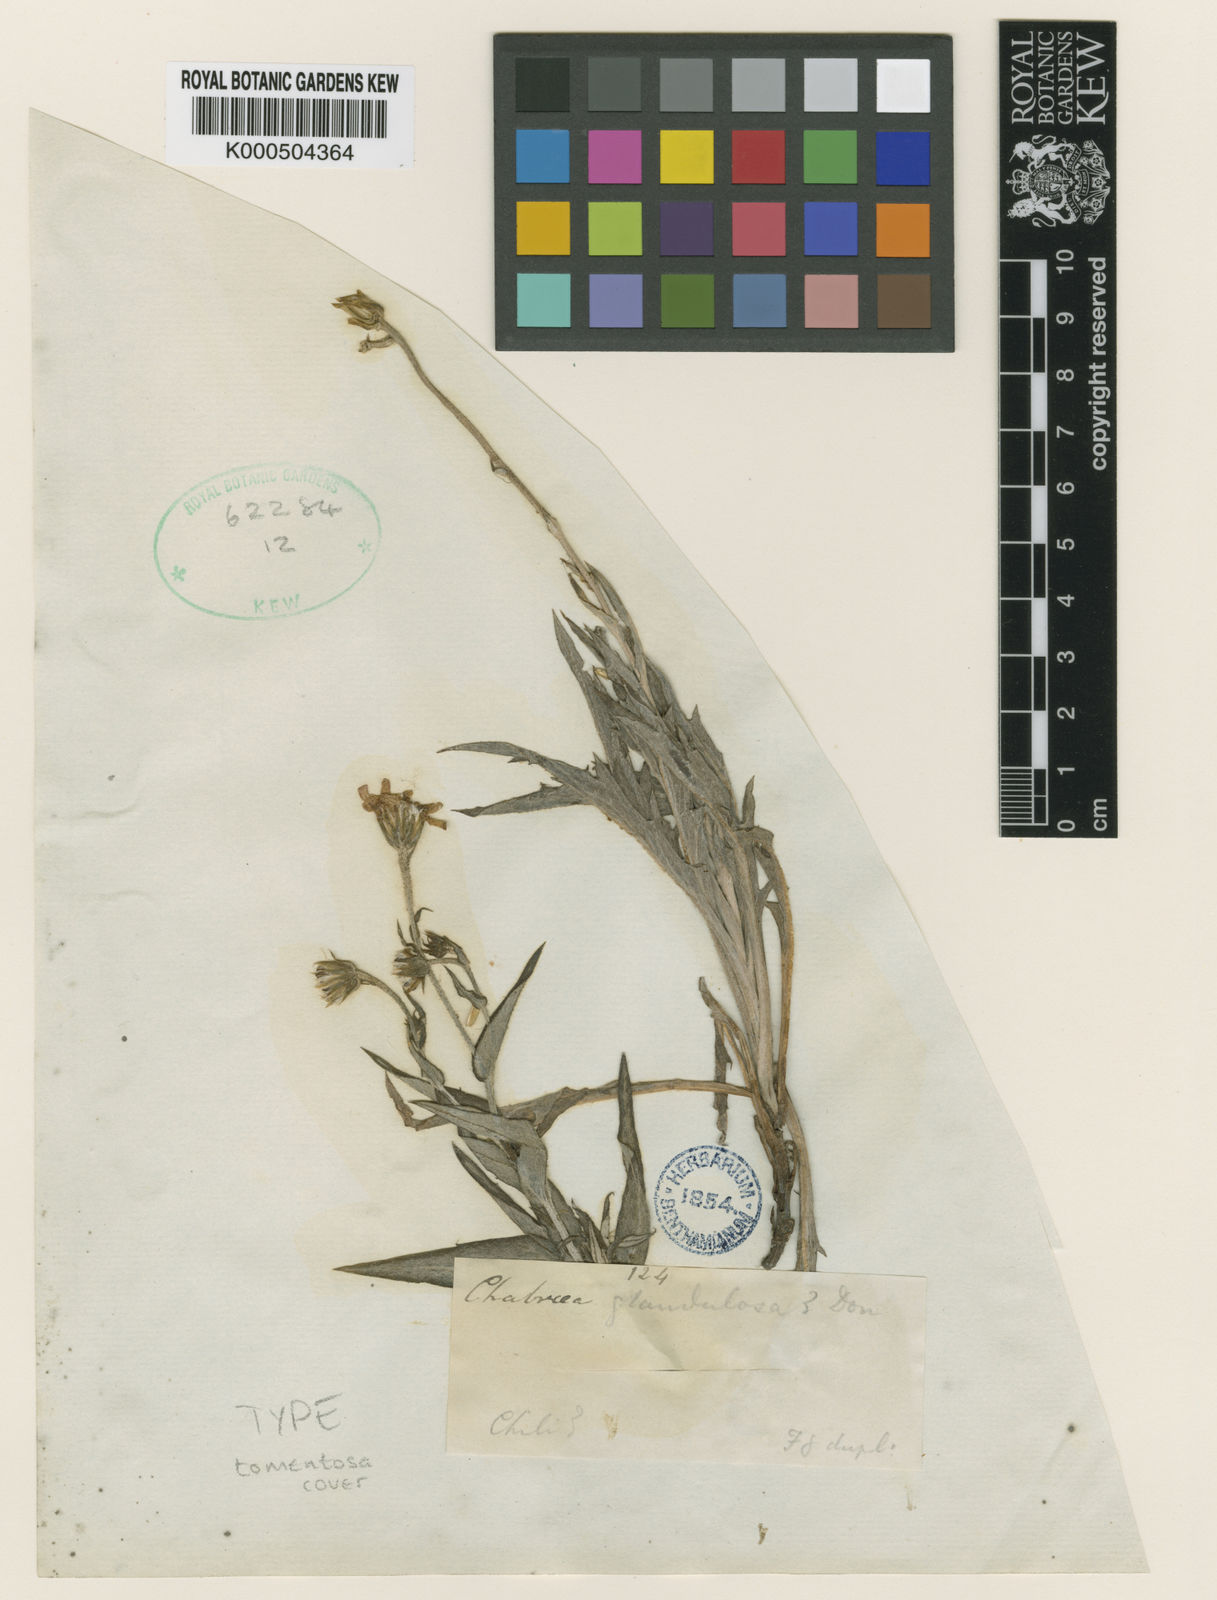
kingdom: Plantae
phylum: Tracheophyta
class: Magnoliopsida
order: Asterales
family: Asteraceae
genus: Leucheria
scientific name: Leucheria tomentosa
